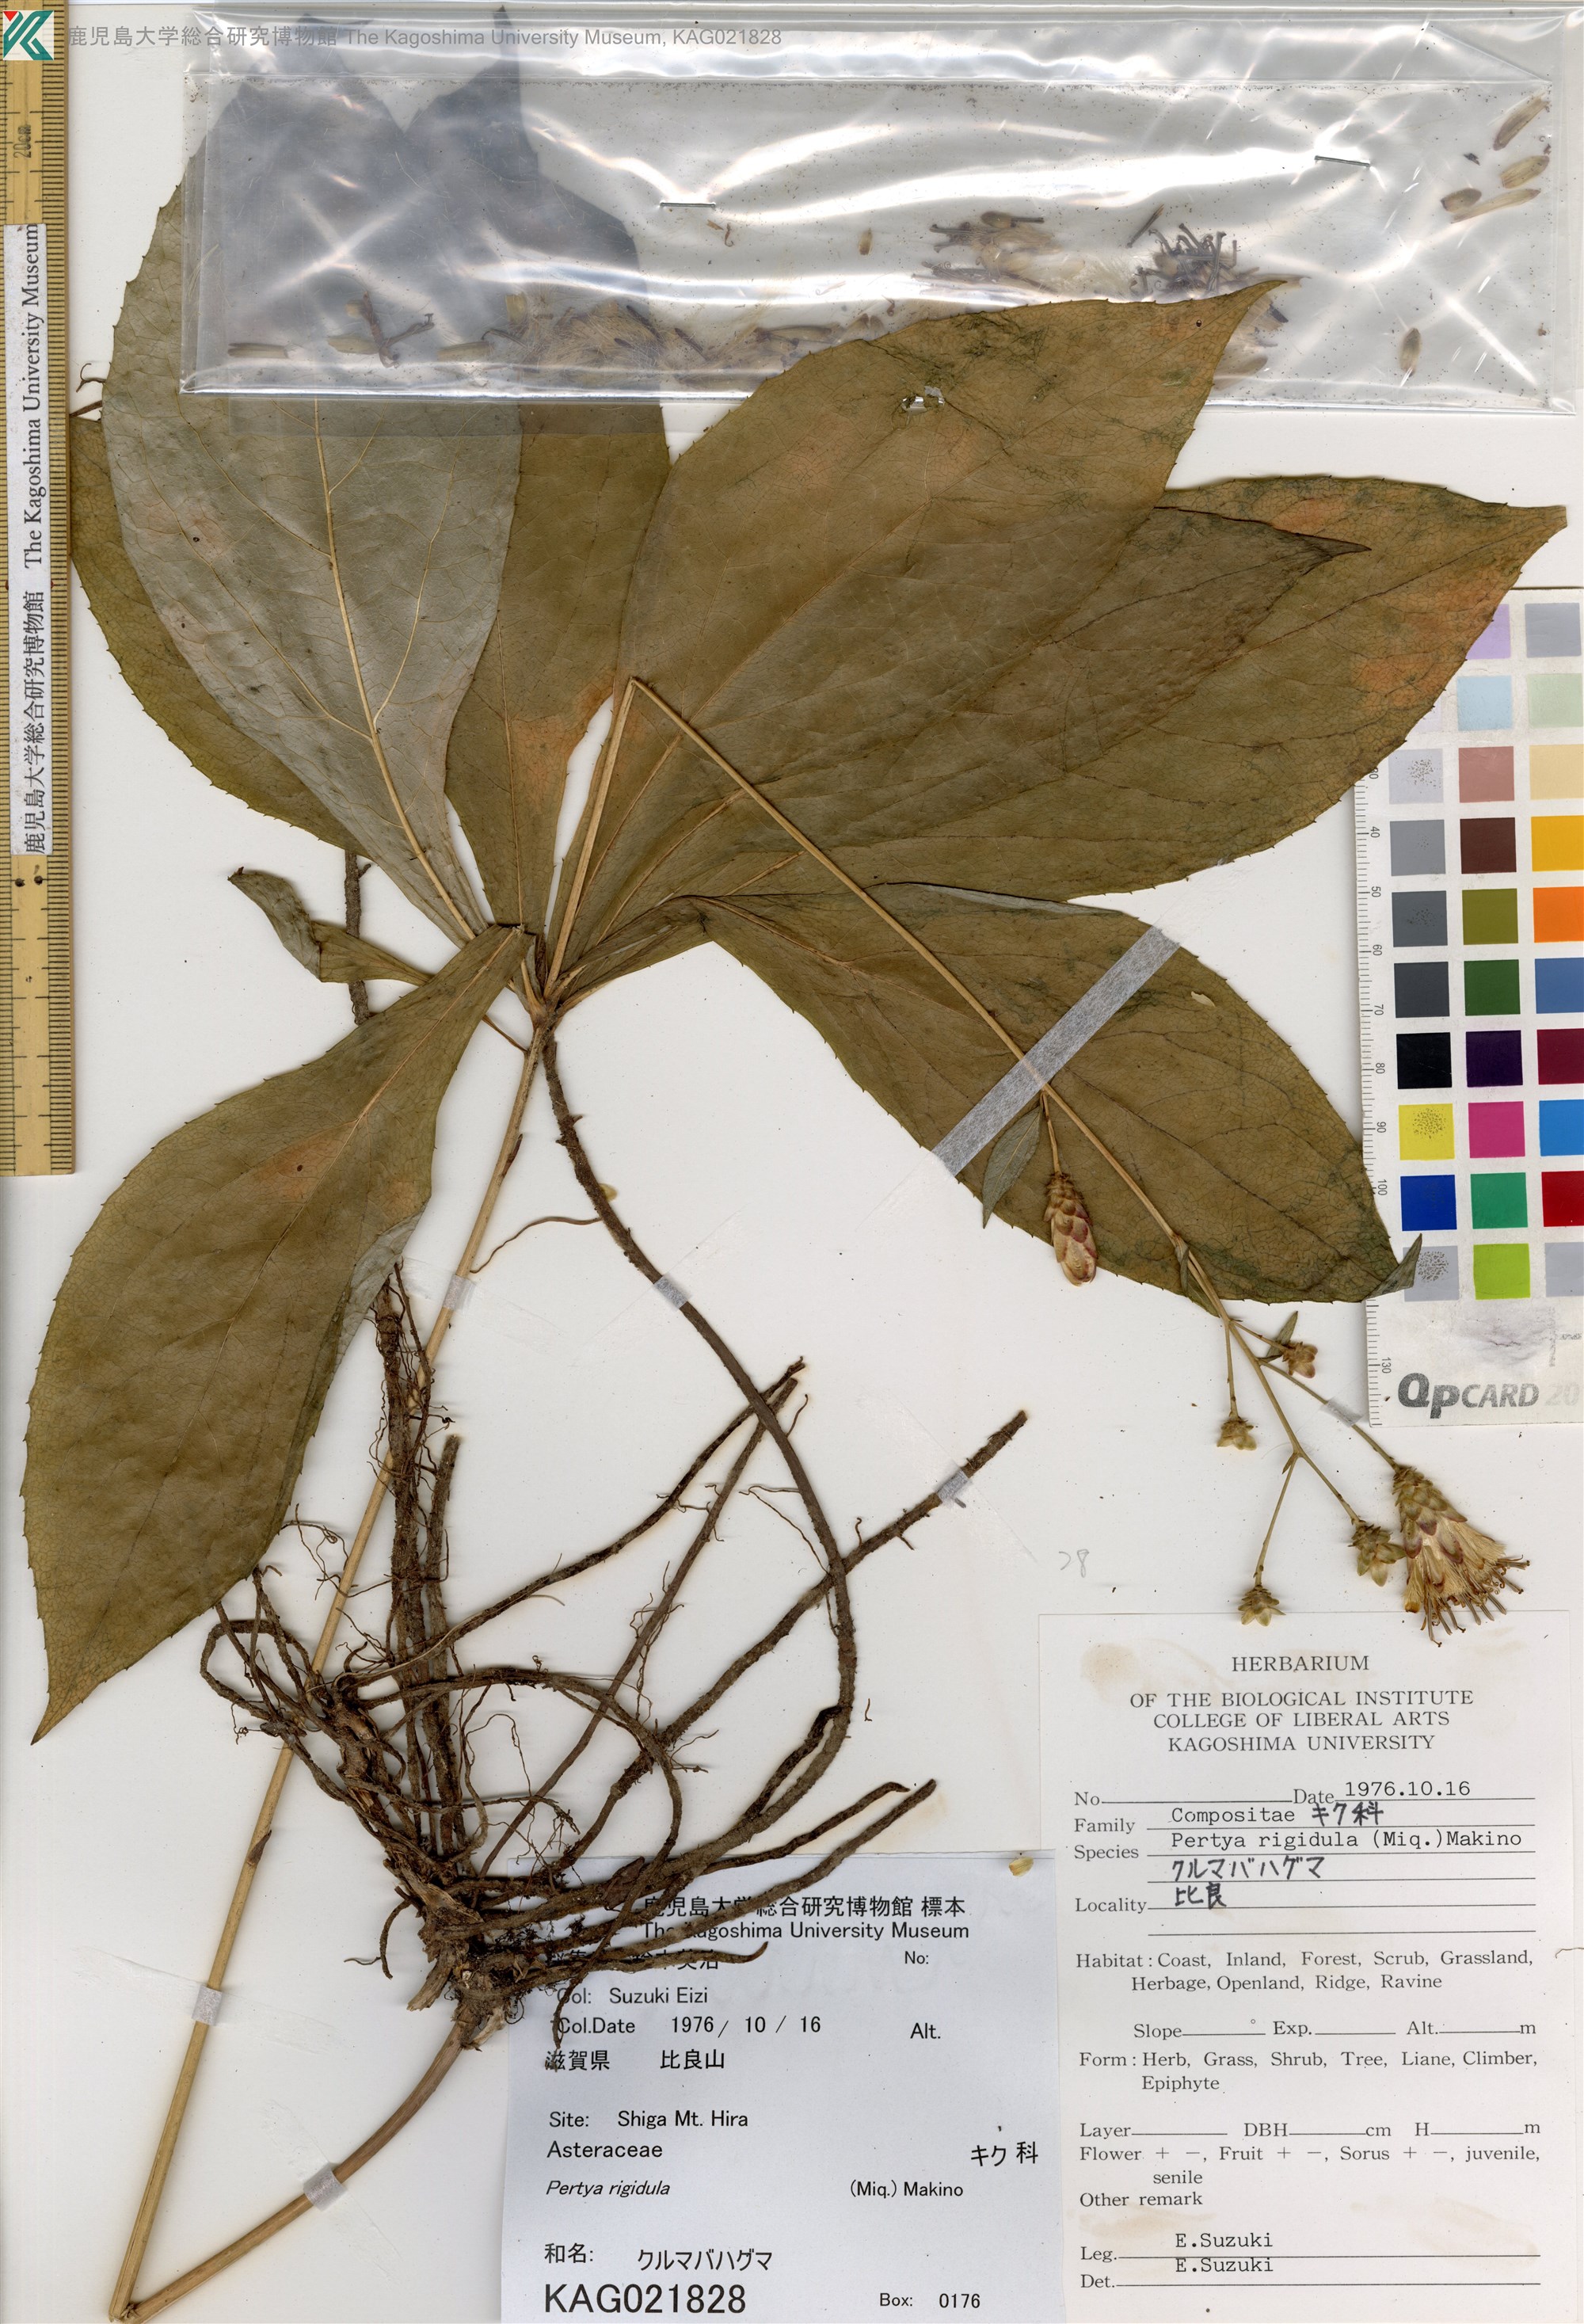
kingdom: Plantae
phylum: Tracheophyta
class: Magnoliopsida
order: Asterales
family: Asteraceae
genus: Pertya
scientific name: Pertya rigidula
